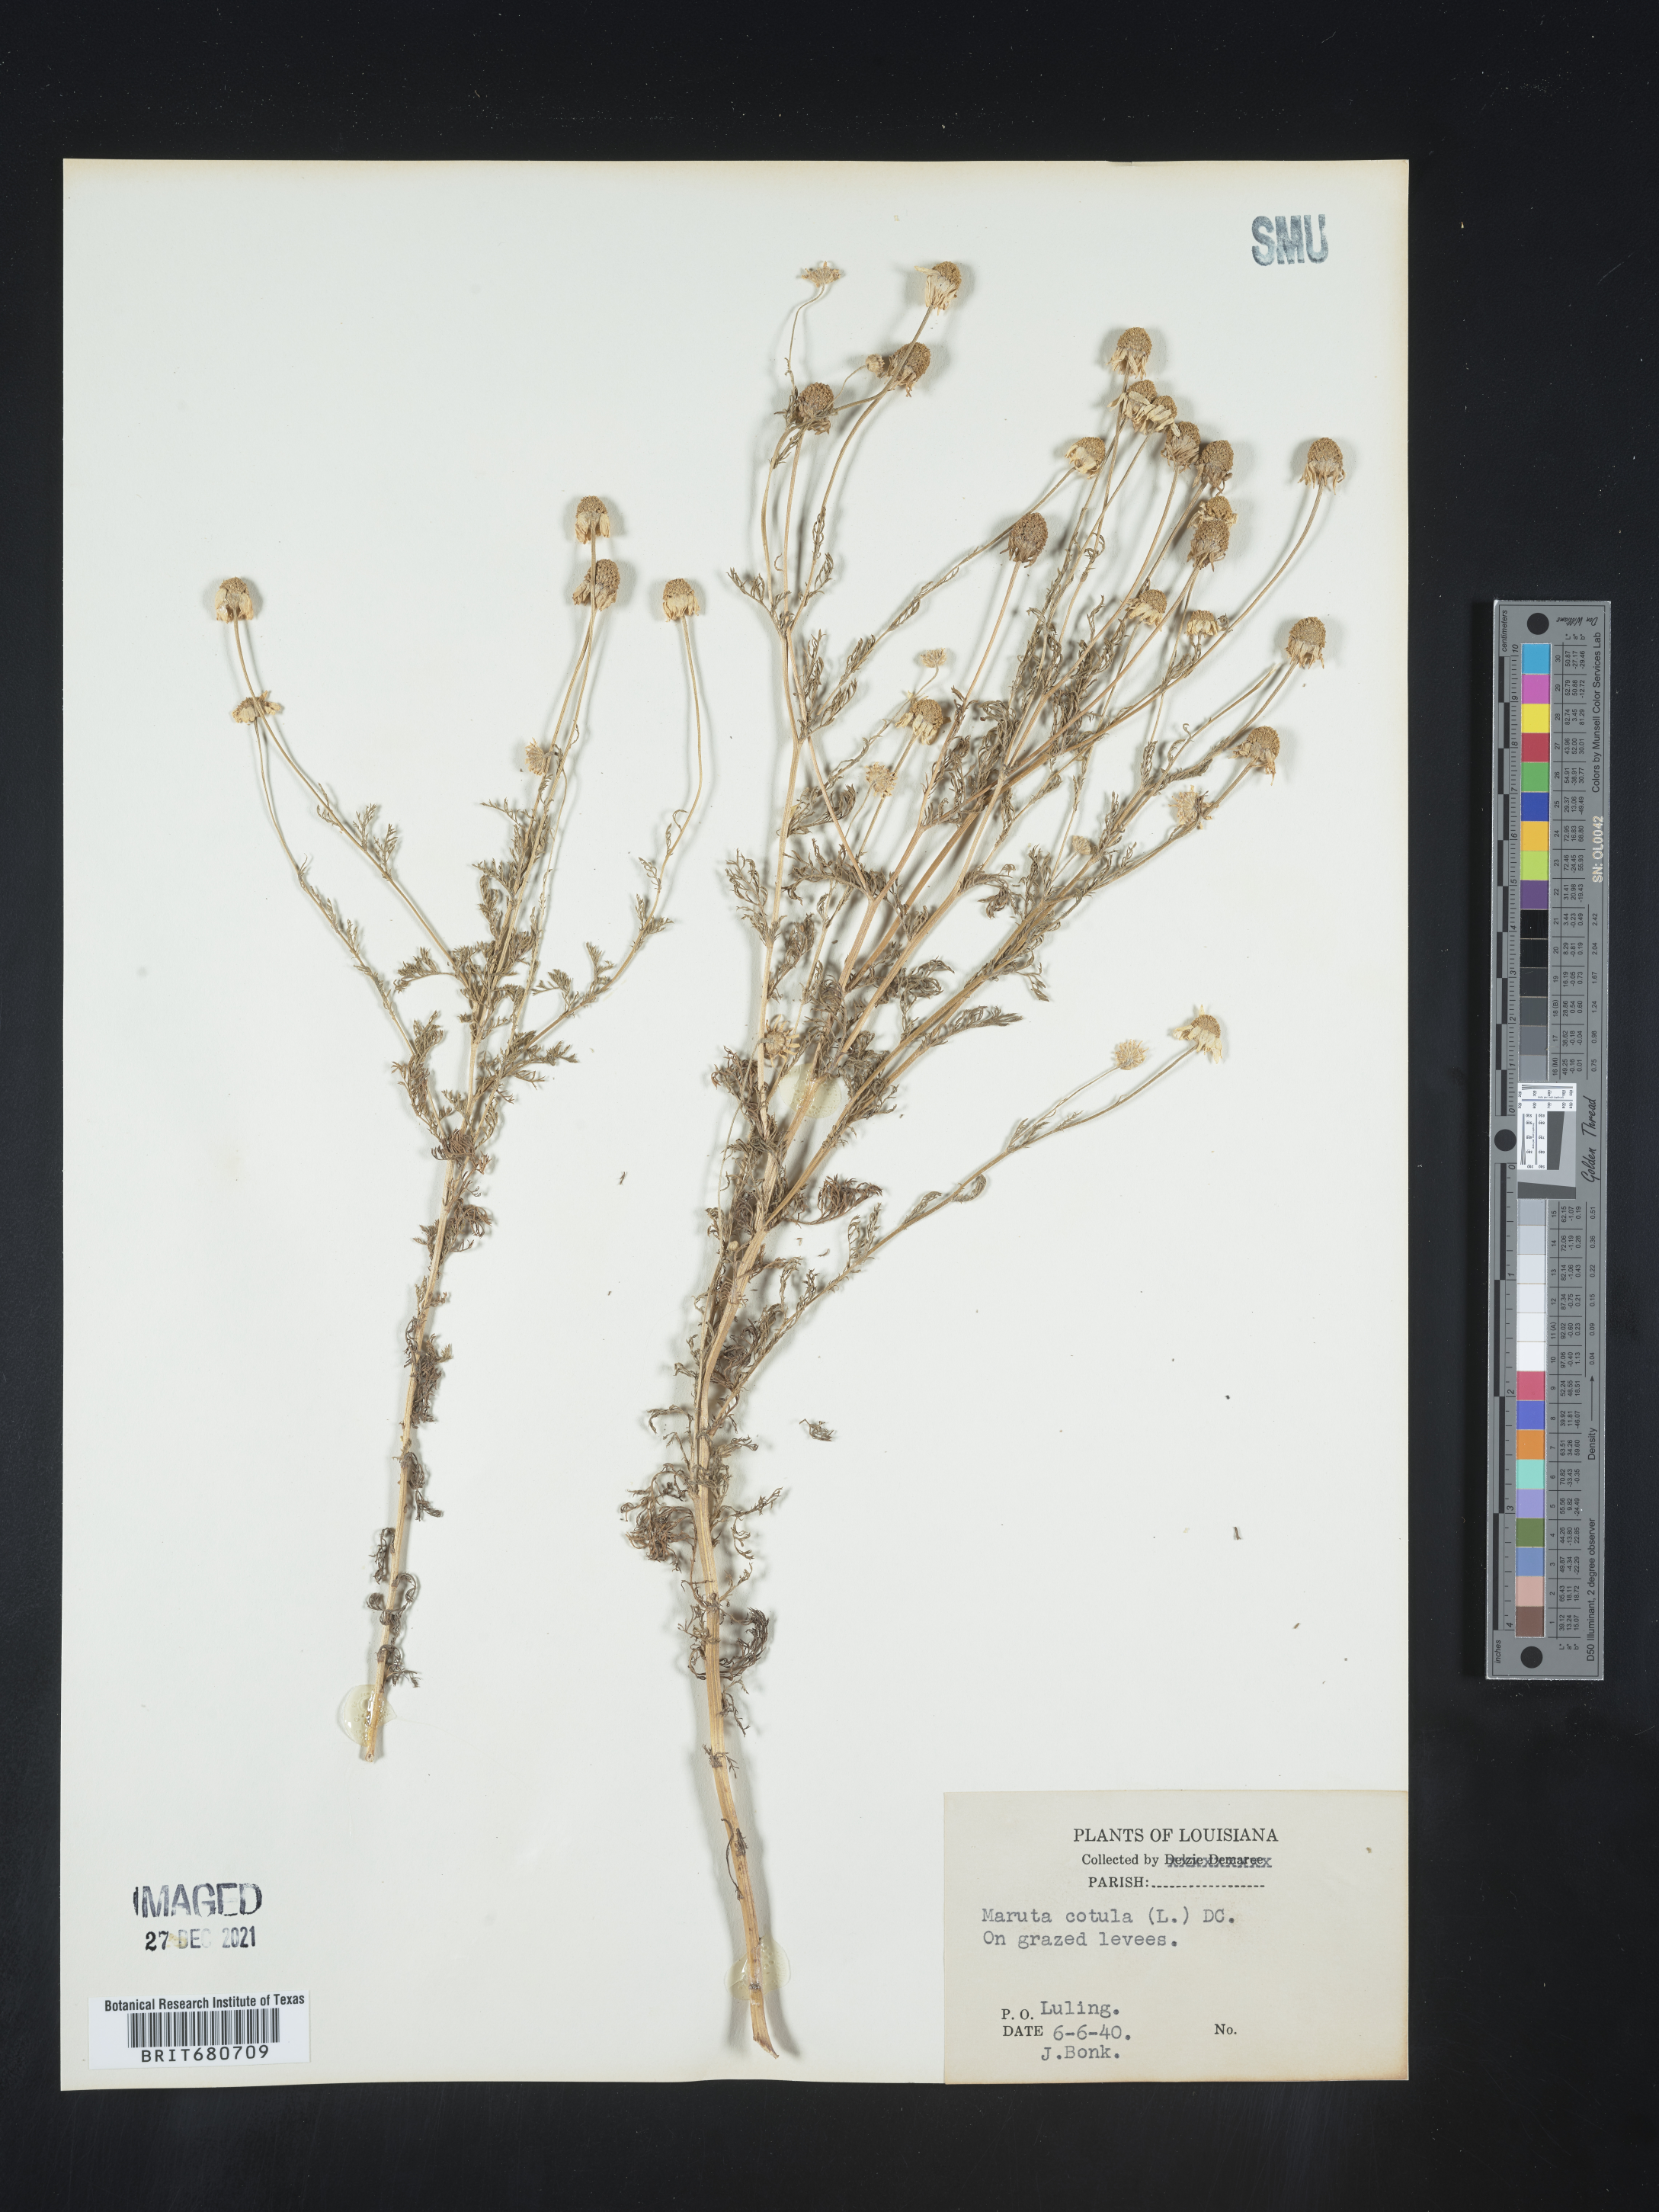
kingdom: Plantae
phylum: Tracheophyta
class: Magnoliopsida
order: Asterales
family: Asteraceae
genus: Anthemis
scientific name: Anthemis cotula
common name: Stinking chamomile
